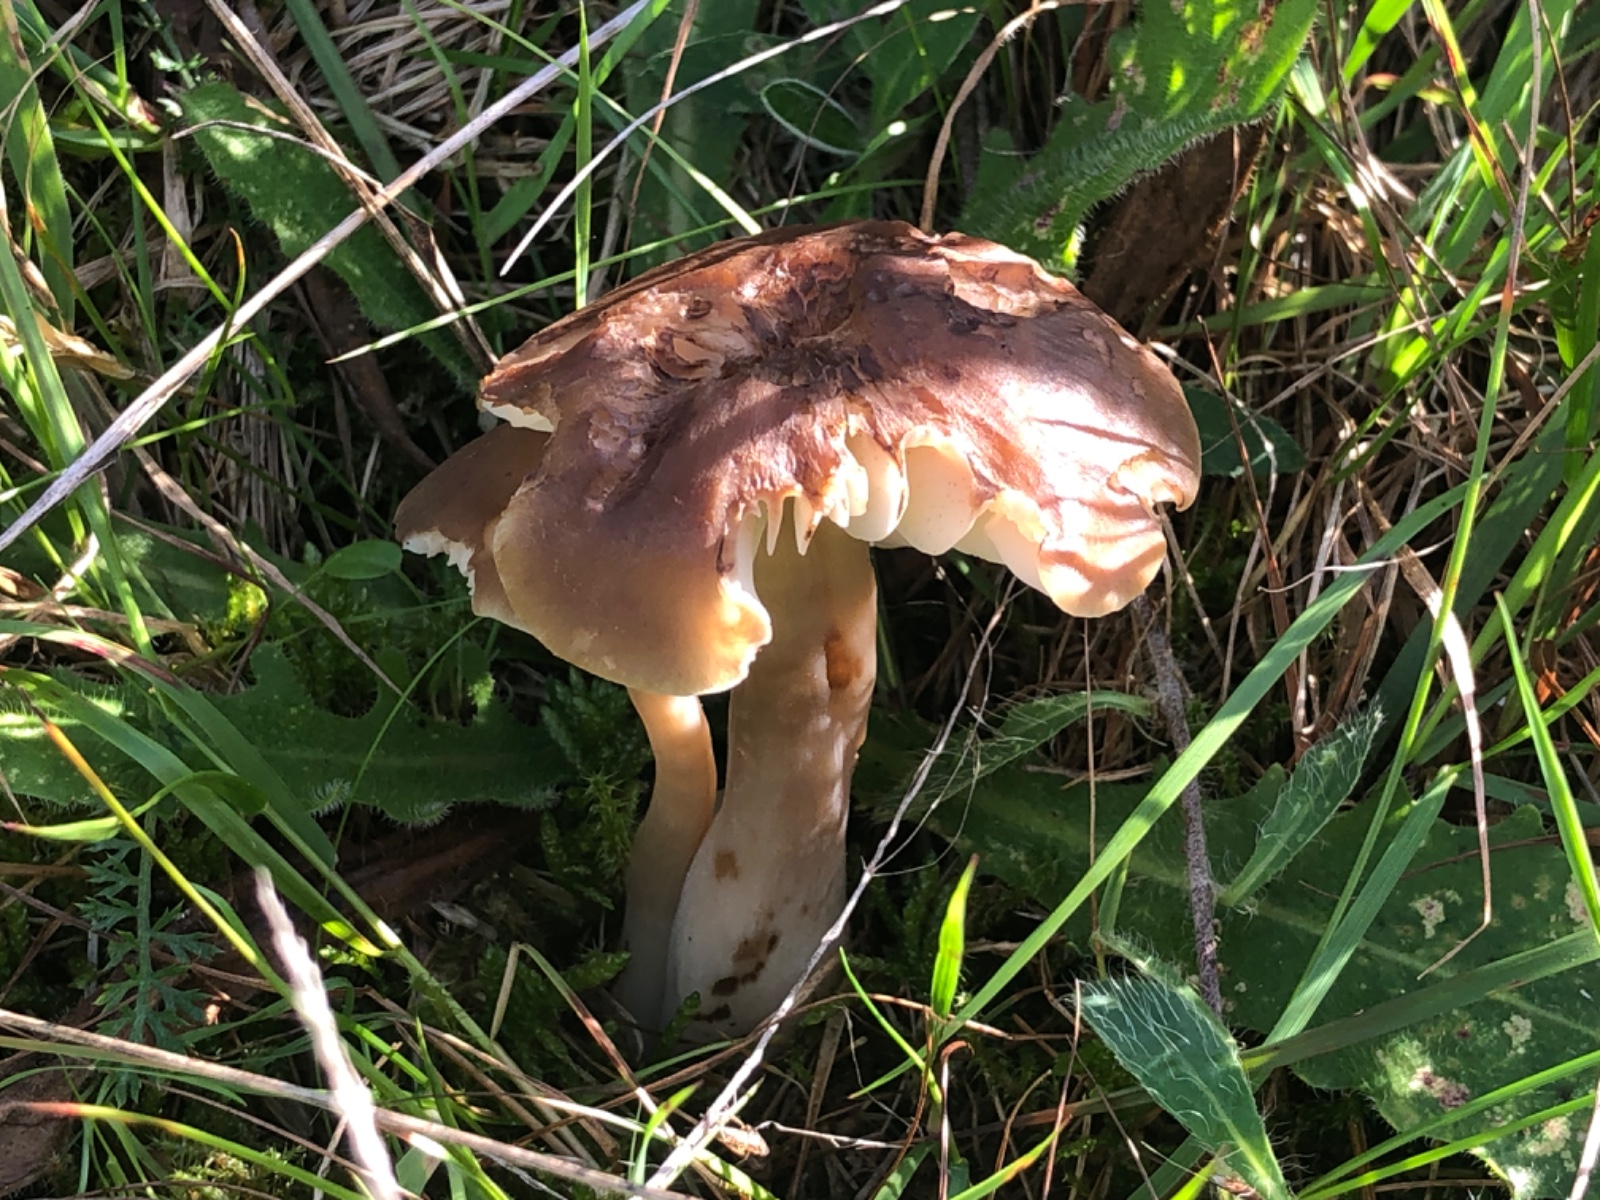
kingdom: Fungi
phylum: Basidiomycota
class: Agaricomycetes
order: Agaricales
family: Hygrophoraceae
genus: Hygrocybe
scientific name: Hygrocybe ingrata
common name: Jensens vokshat
